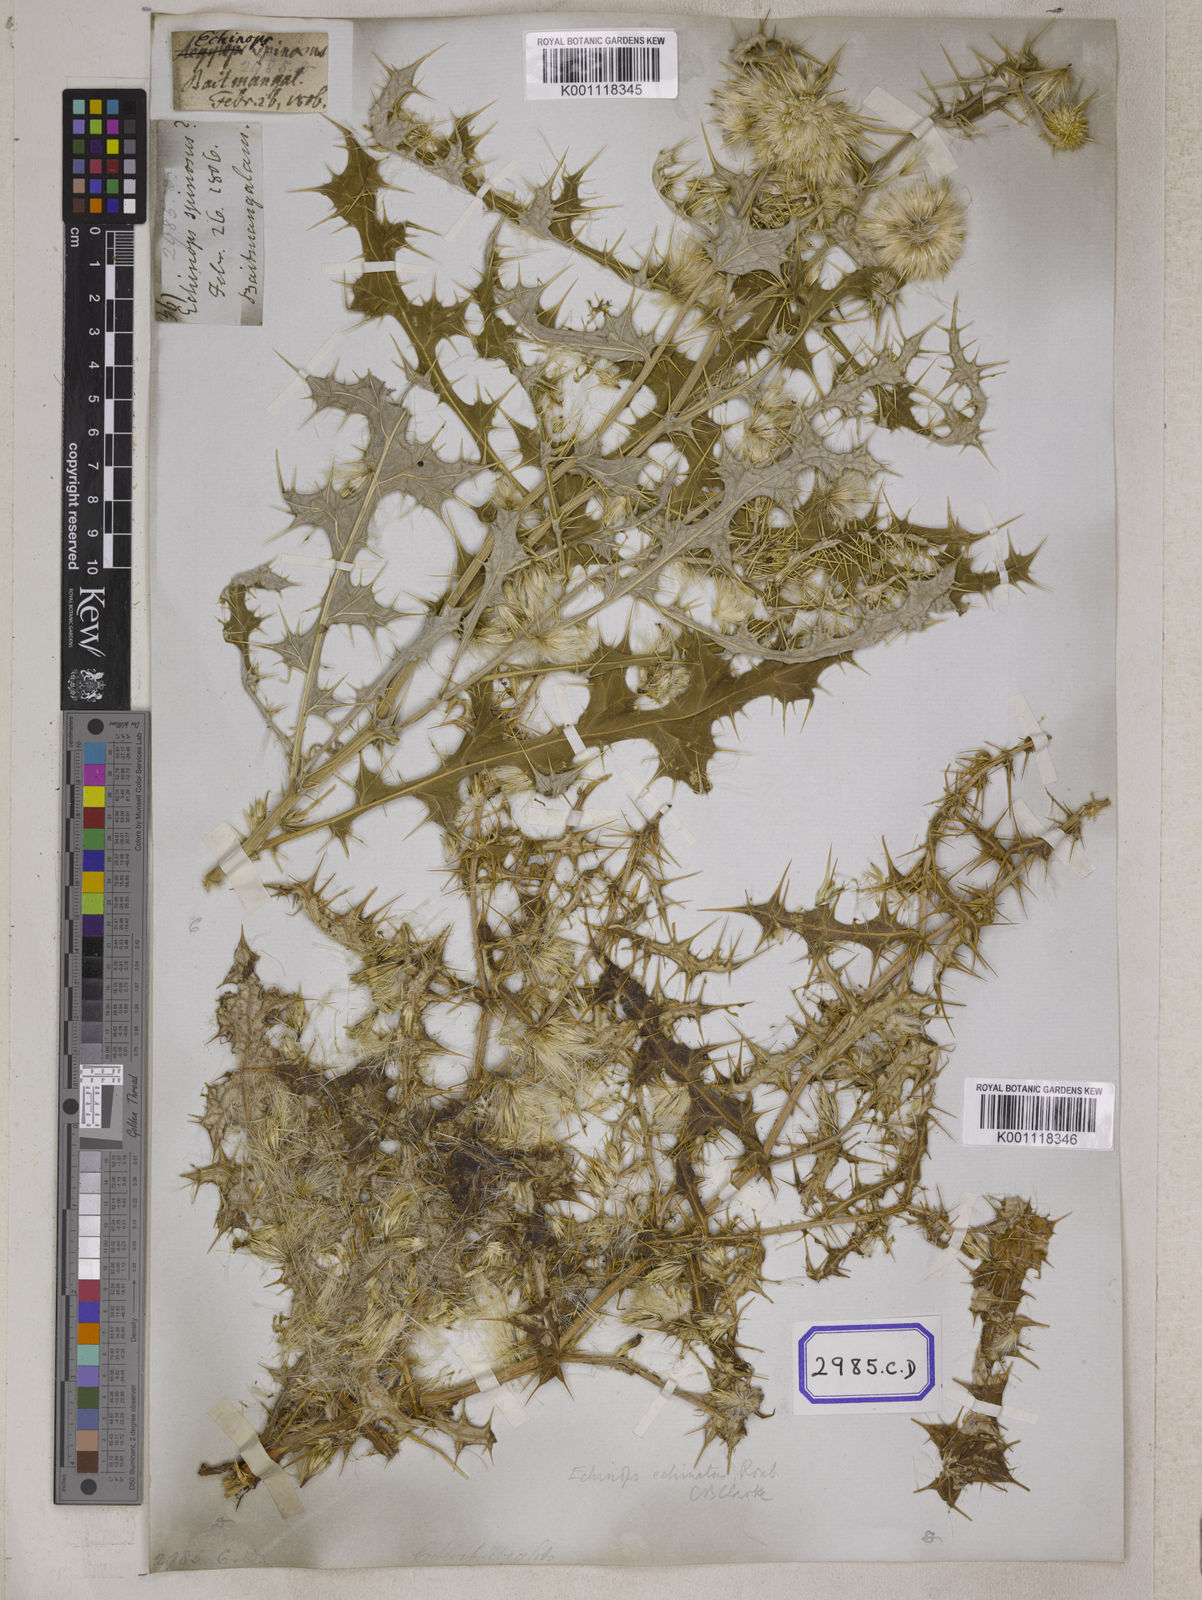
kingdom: Plantae
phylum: Tracheophyta
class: Magnoliopsida
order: Asterales
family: Asteraceae
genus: Echinops
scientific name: Echinops echinatus
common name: Indian globe thistle
